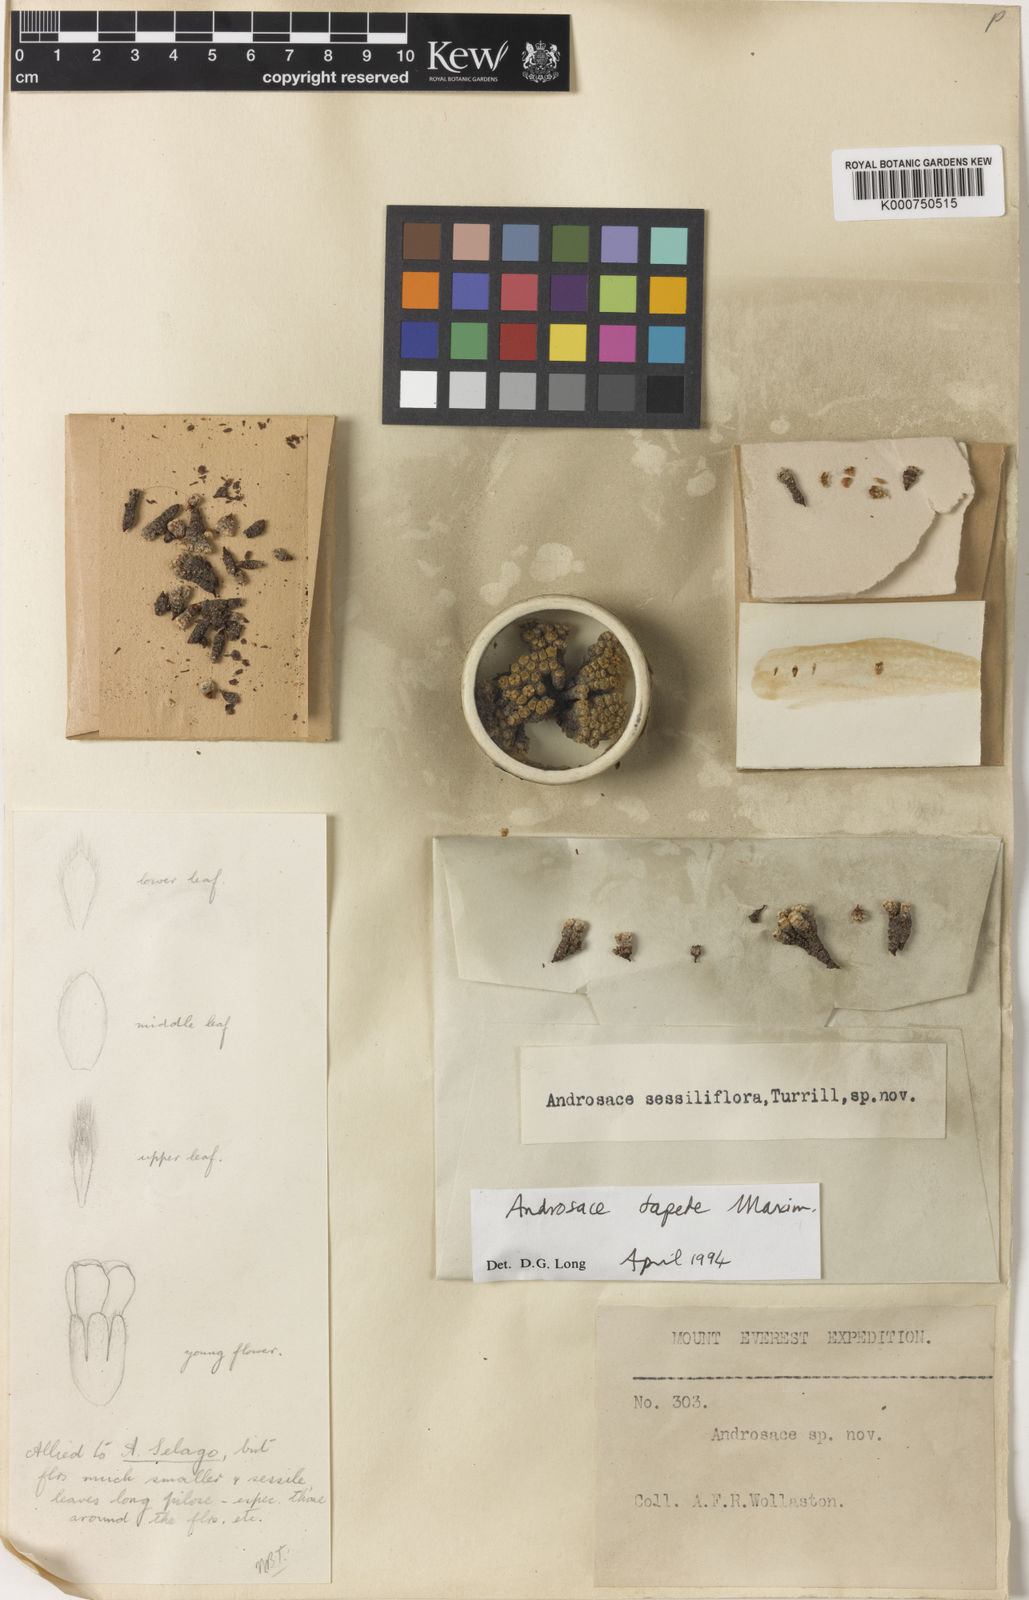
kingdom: Plantae
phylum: Tracheophyta
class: Magnoliopsida
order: Ericales
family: Primulaceae
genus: Androsace
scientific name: Androsace tapete
